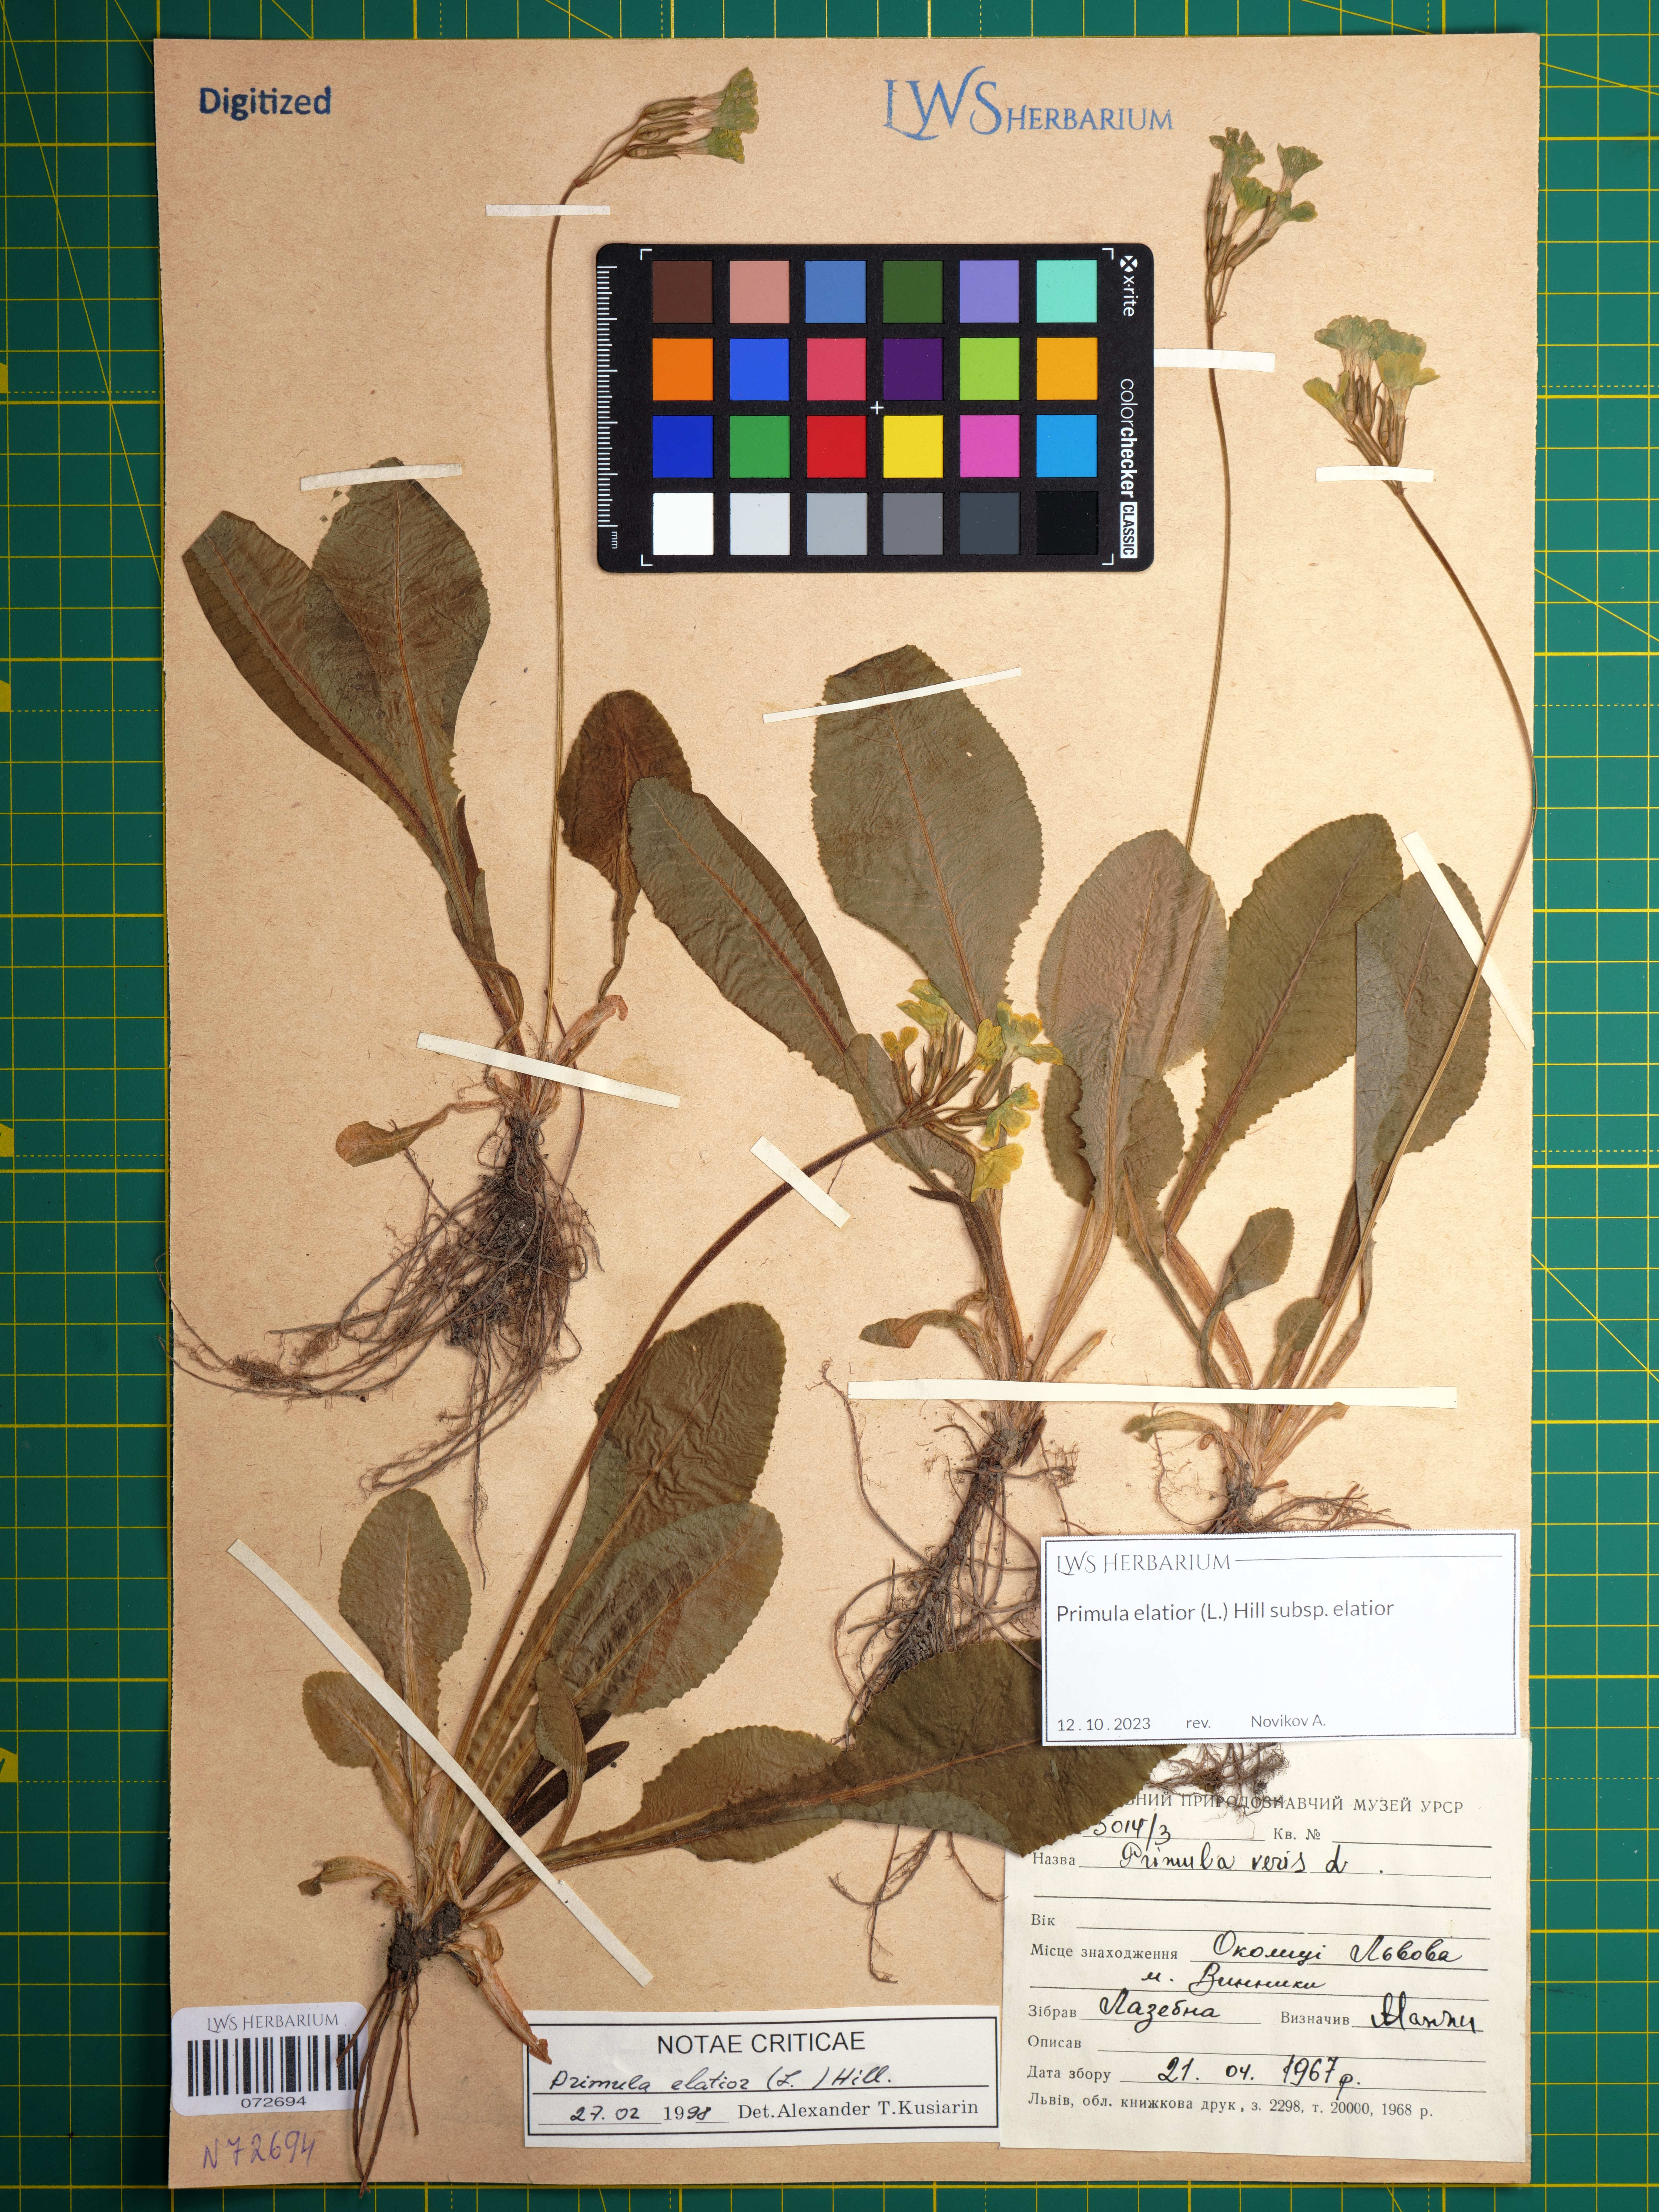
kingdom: Plantae
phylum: Tracheophyta
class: Magnoliopsida
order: Ericales
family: Primulaceae
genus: Primula
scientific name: Primula elatior
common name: Oxlip
